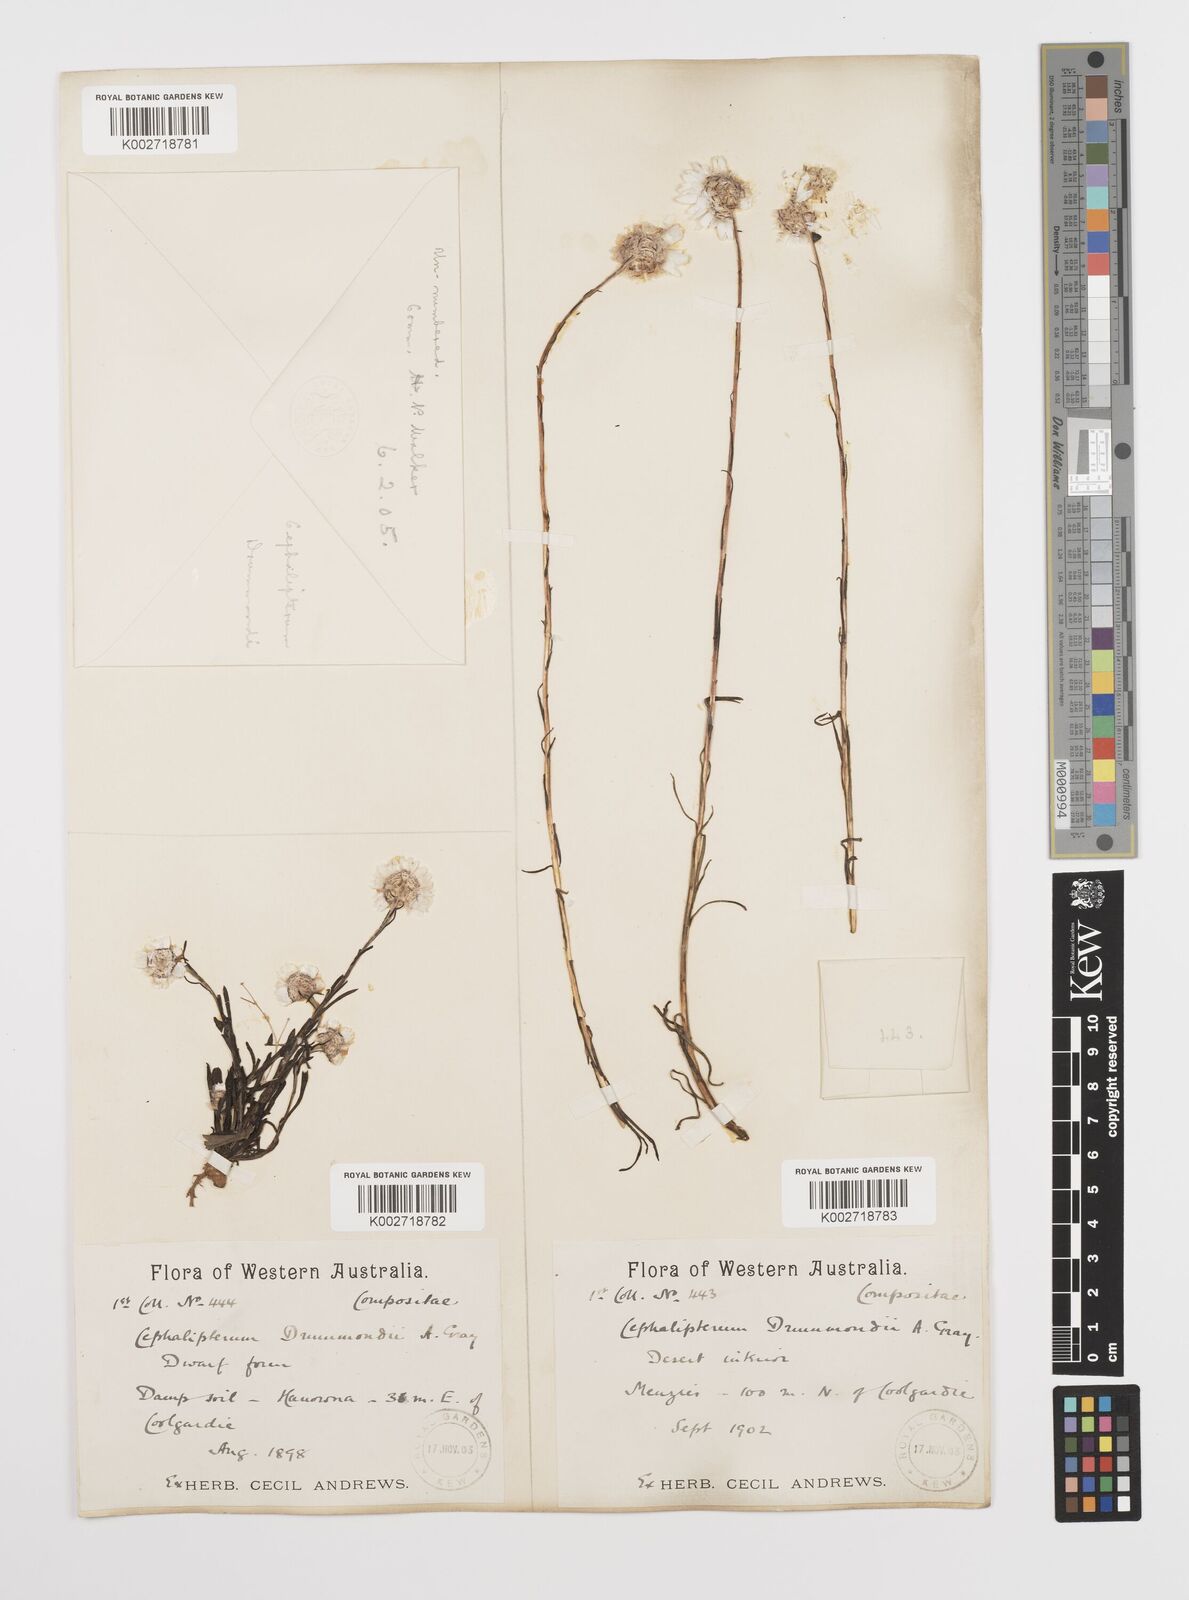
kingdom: Plantae
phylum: Tracheophyta
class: Magnoliopsida
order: Asterales
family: Asteraceae
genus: Cephalipterum
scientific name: Cephalipterum drummondii
